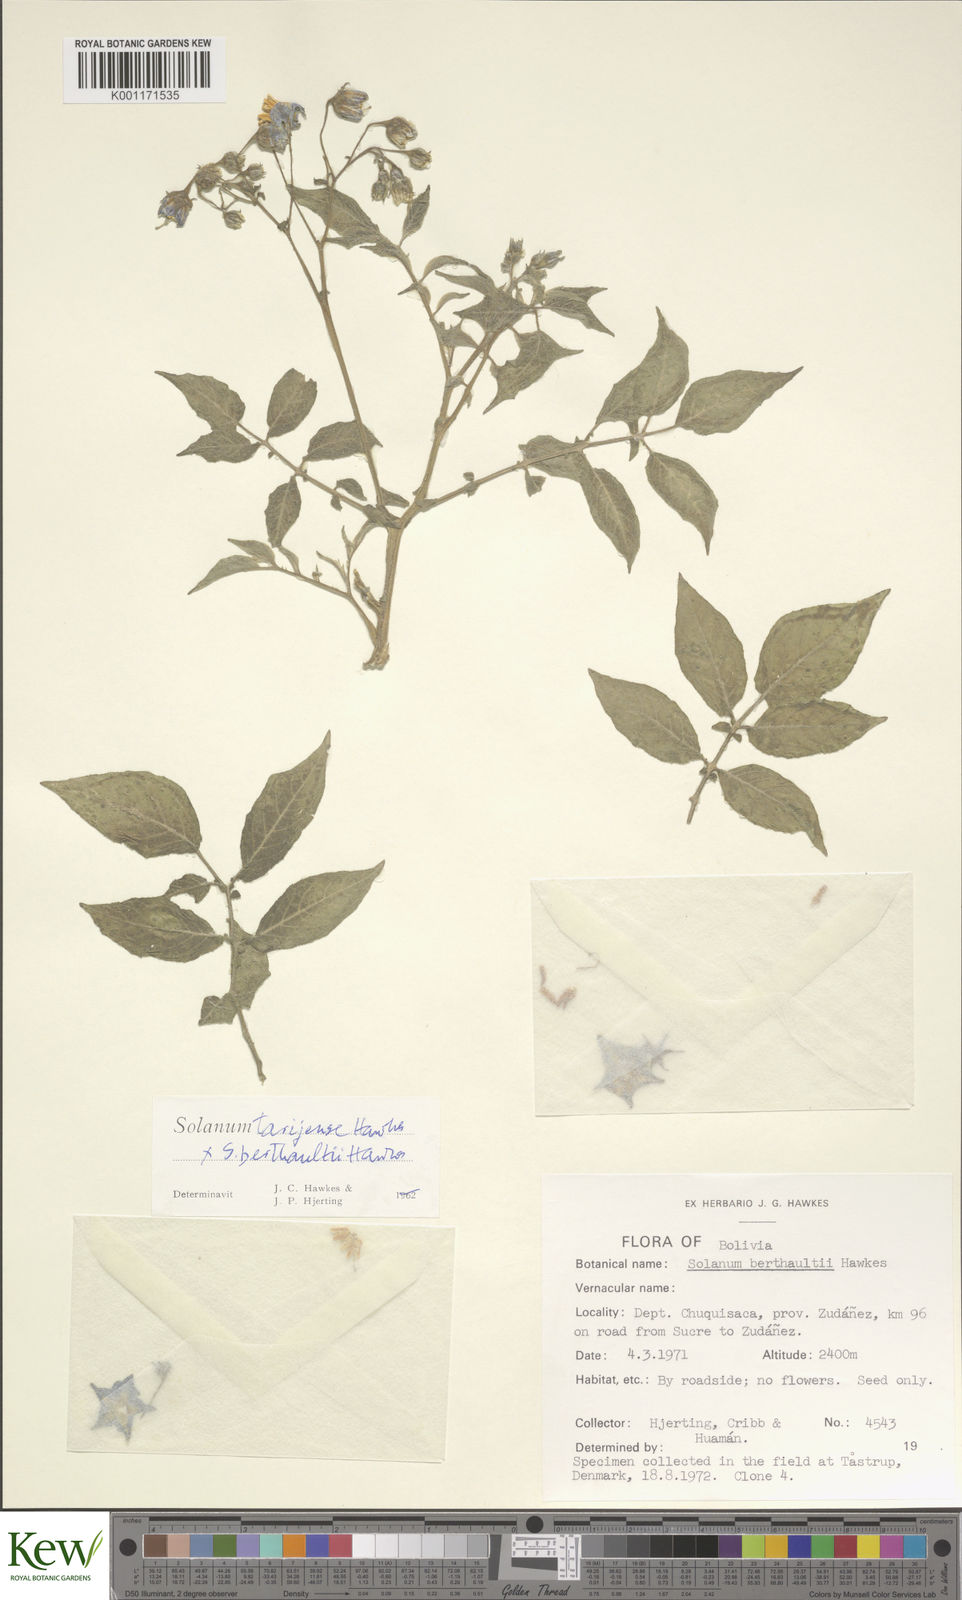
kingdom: Plantae
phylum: Tracheophyta
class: Magnoliopsida
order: Solanales
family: Solanaceae
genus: Solanum
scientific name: Solanum tarijense
